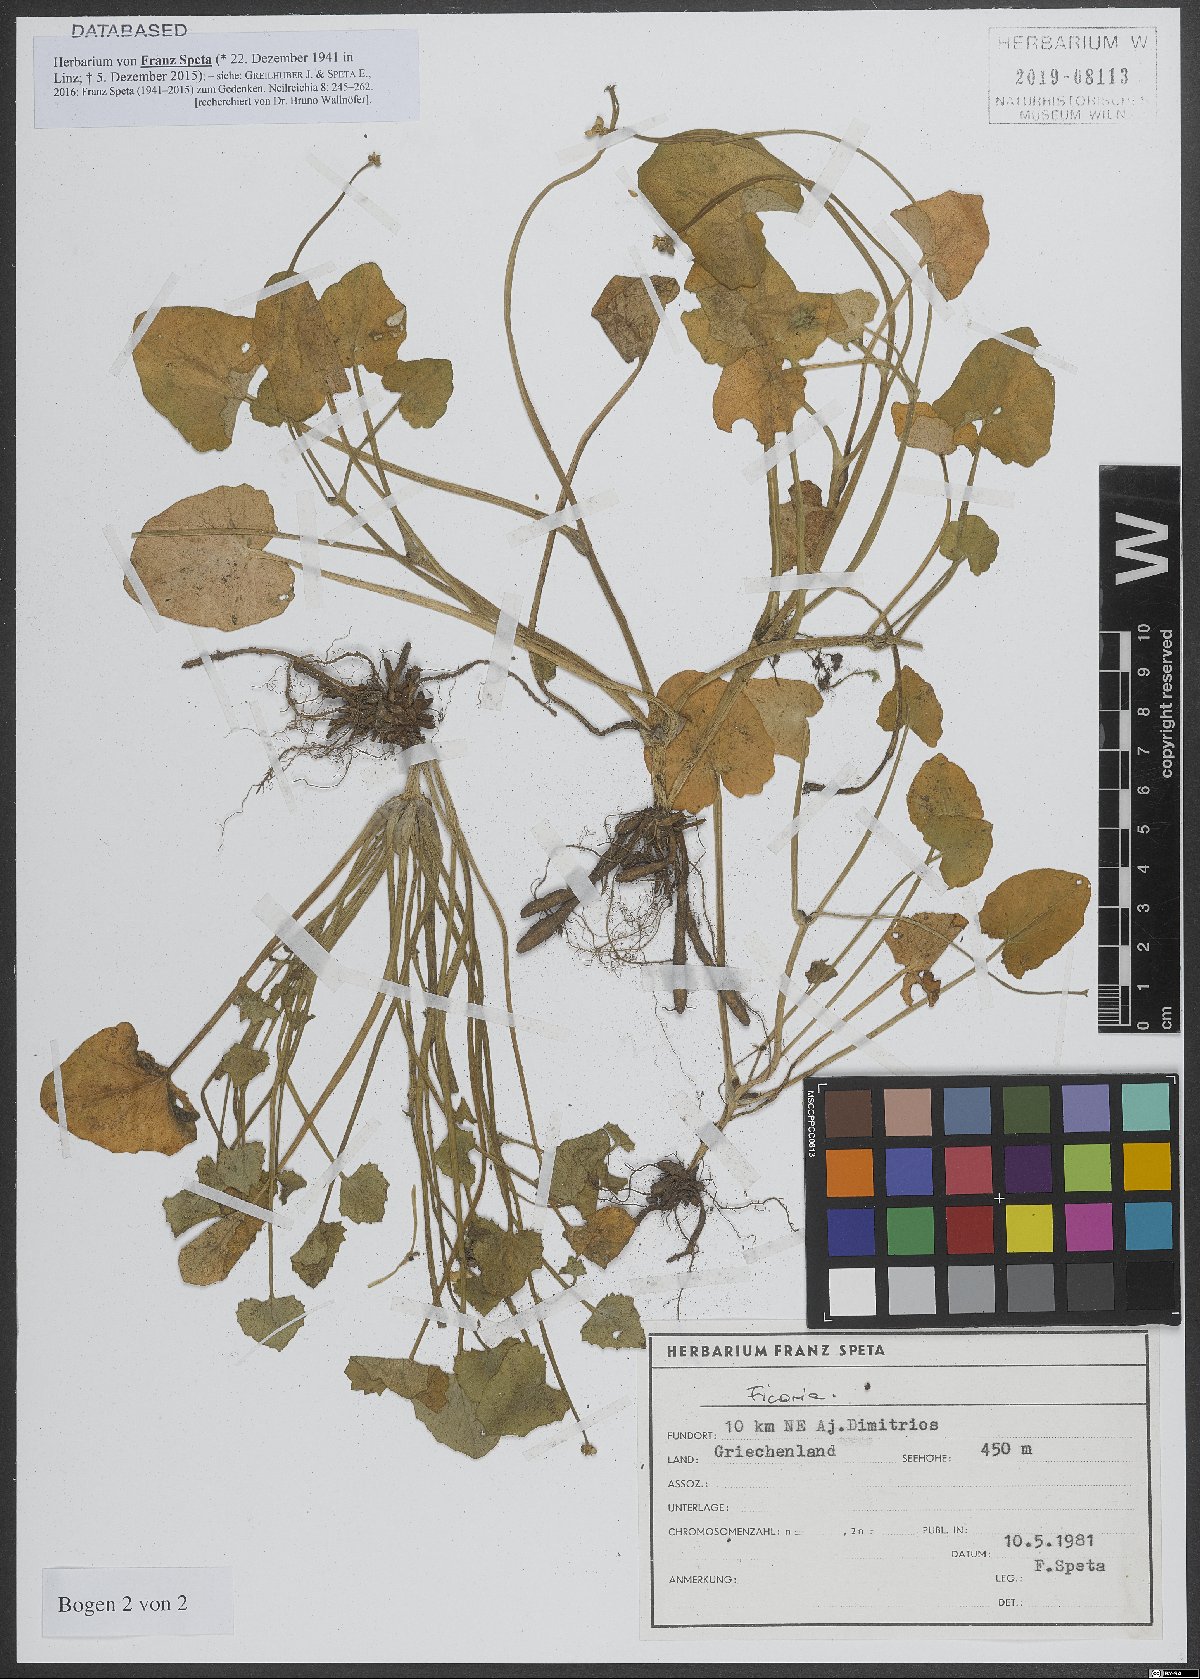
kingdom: Plantae
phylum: Tracheophyta
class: Magnoliopsida
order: Ranunculales
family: Ranunculaceae
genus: Ficaria
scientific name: Ficaria
